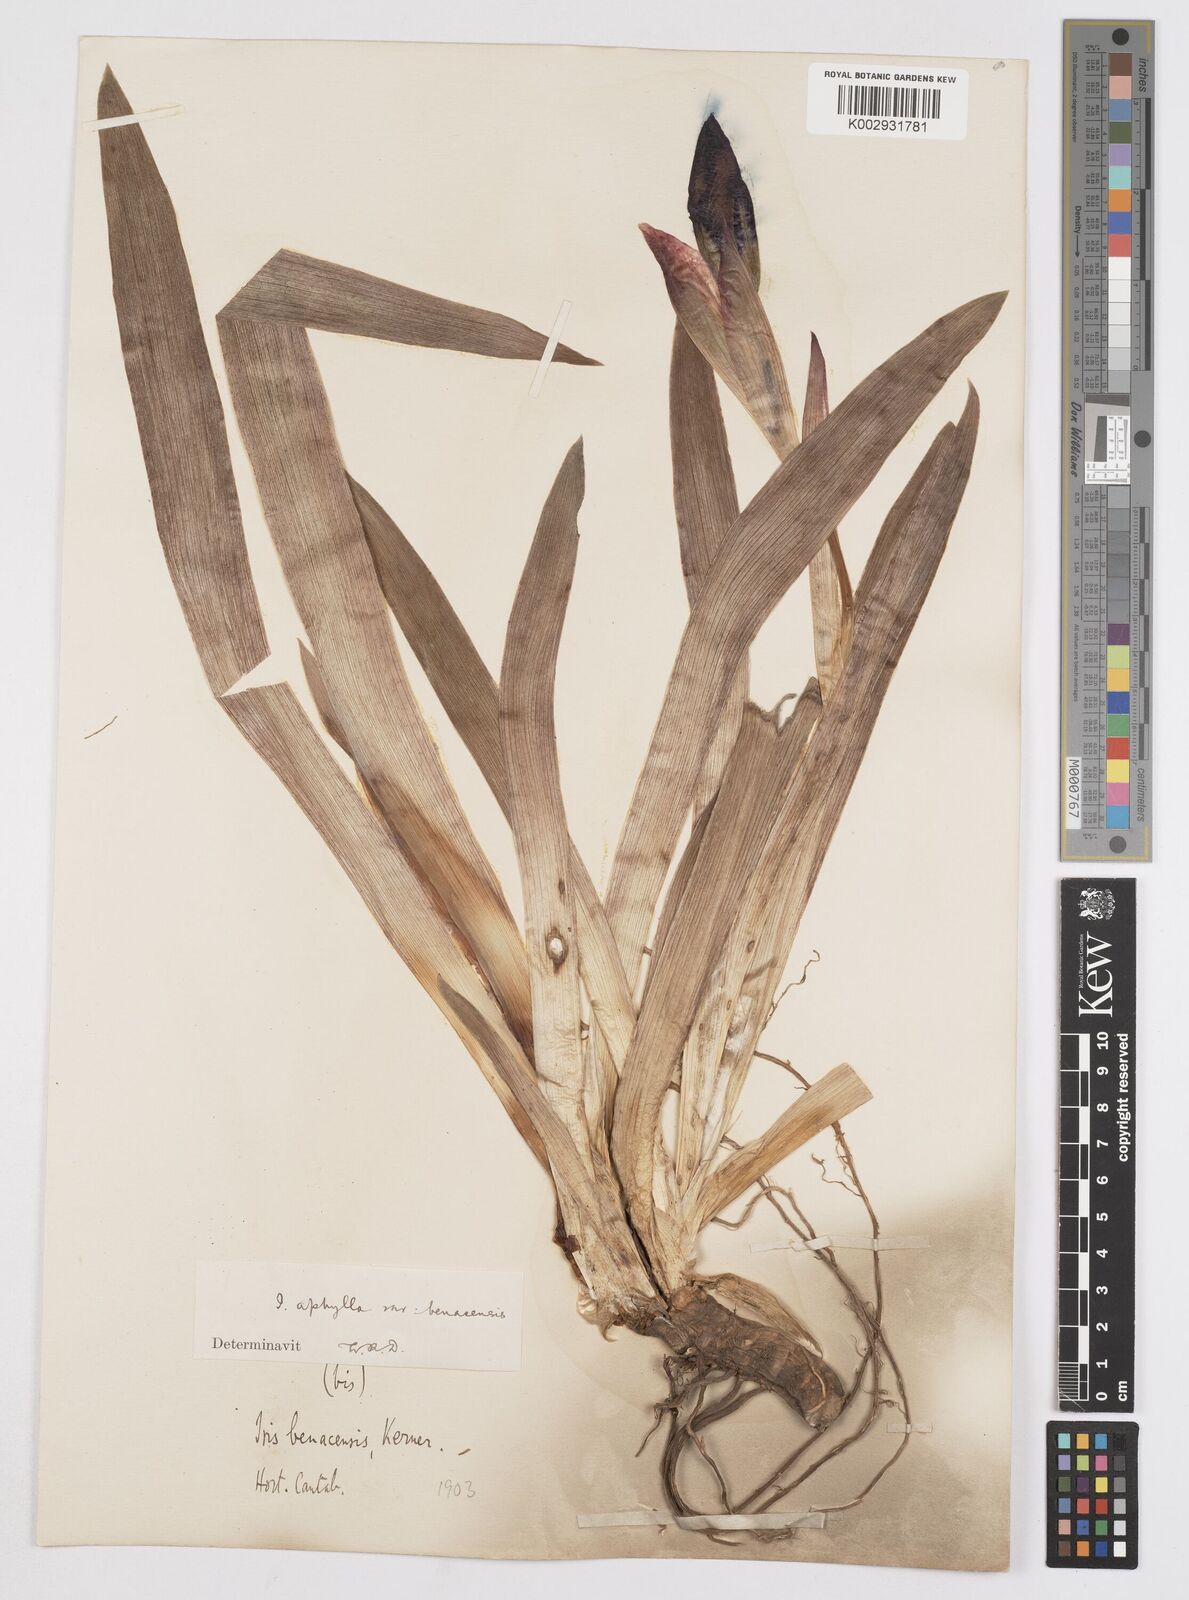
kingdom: Plantae
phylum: Tracheophyta
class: Liliopsida
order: Asparagales
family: Iridaceae
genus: Iris
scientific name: Iris aphylla
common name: Stool iris
